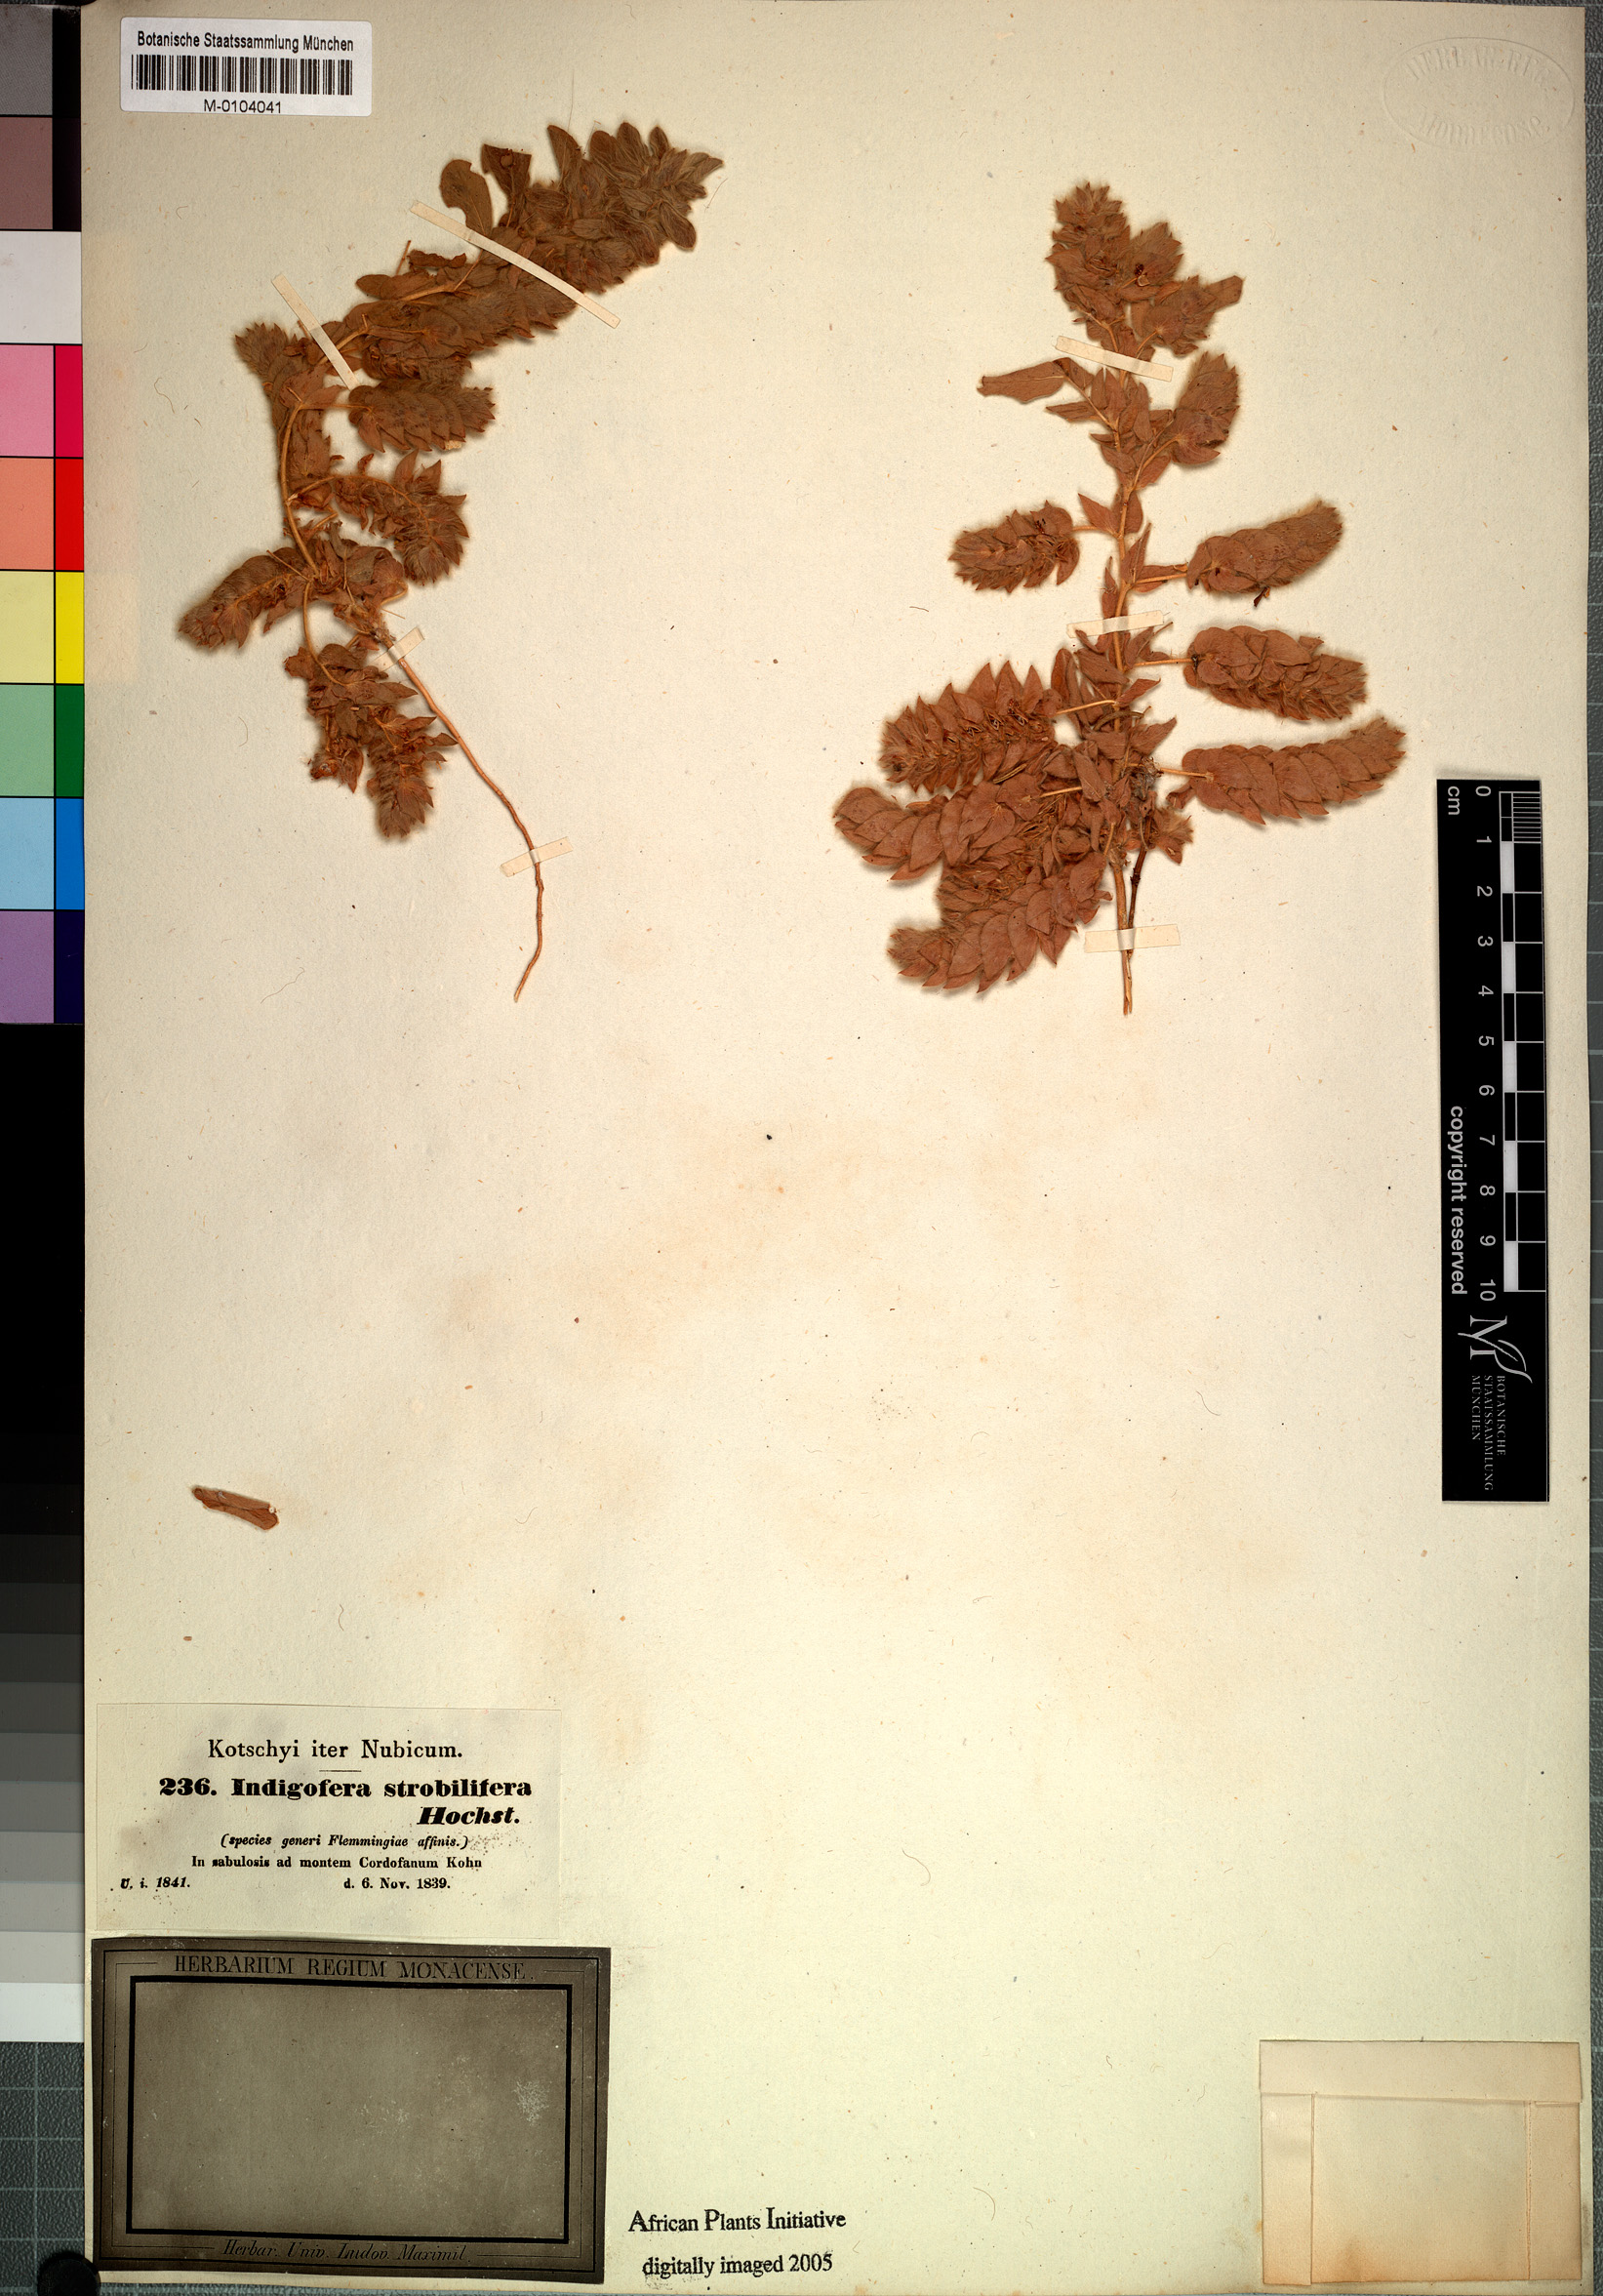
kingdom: Plantae
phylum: Tracheophyta
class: Magnoliopsida
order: Fabales
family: Fabaceae
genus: Indigofera
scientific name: Indigofera strobilifera
